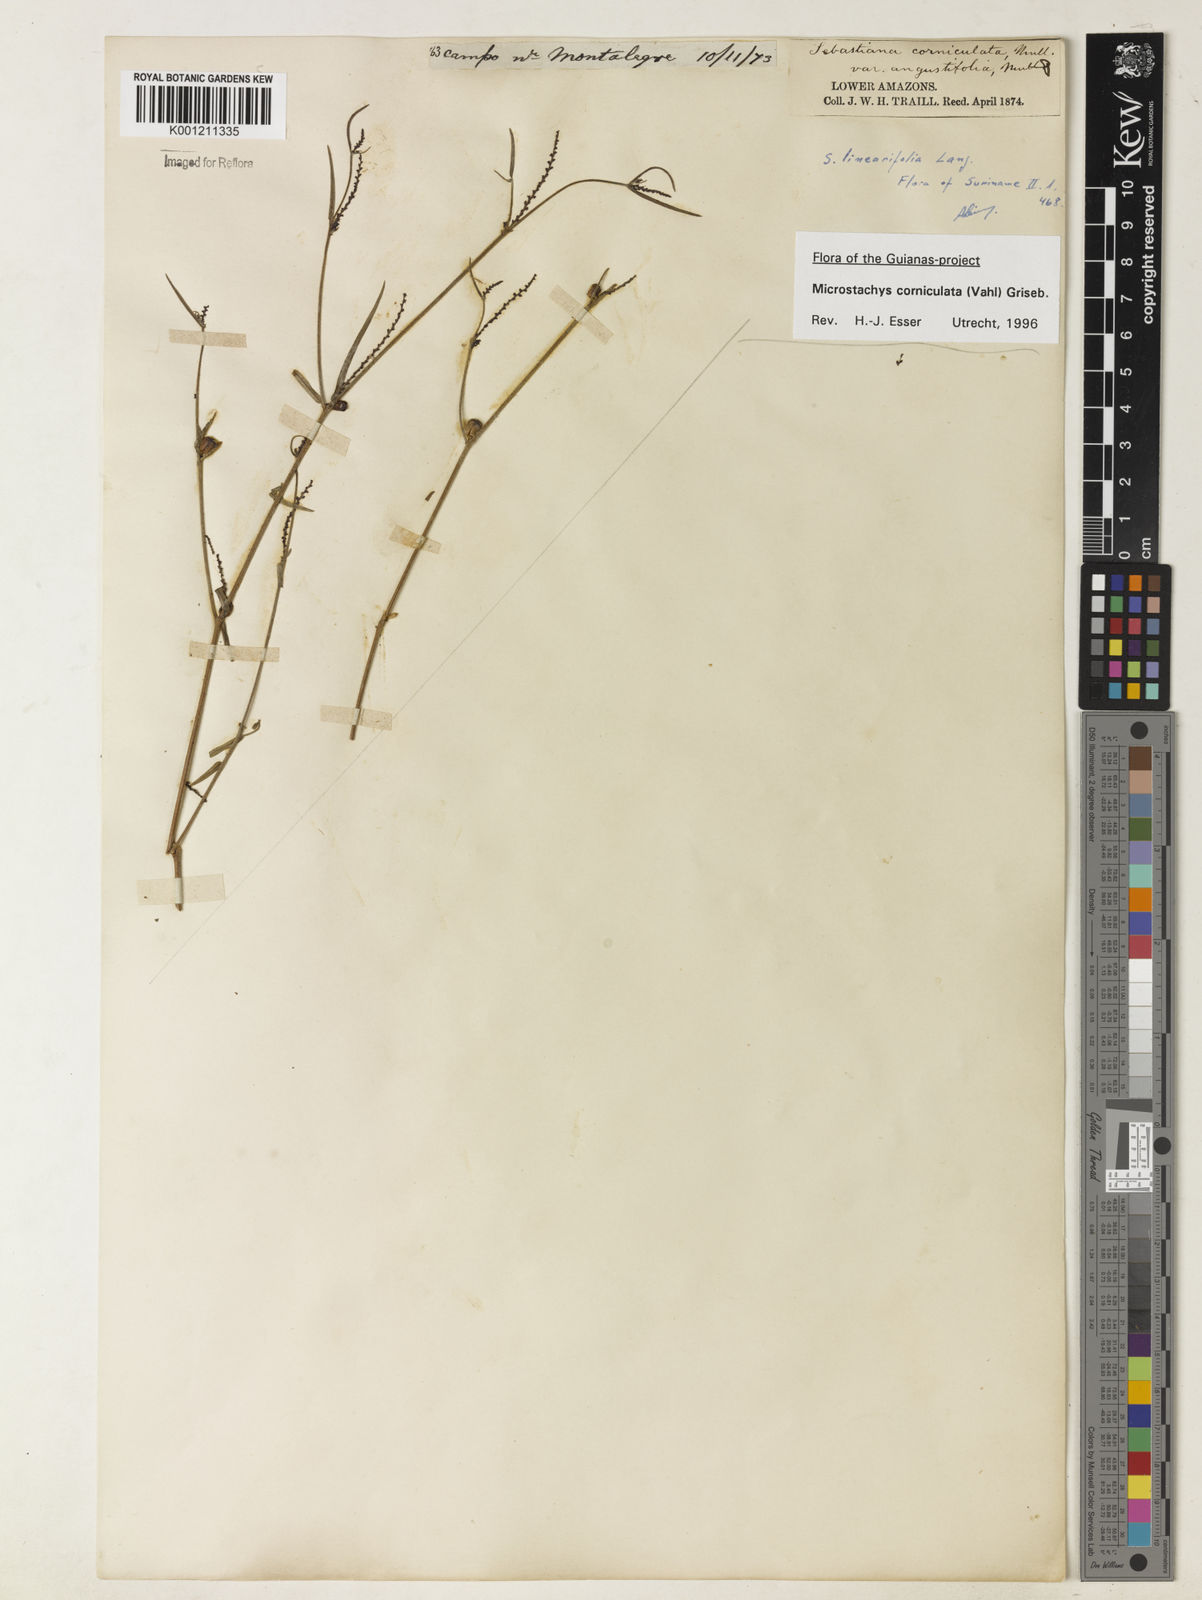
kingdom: Plantae
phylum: Tracheophyta
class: Magnoliopsida
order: Malpighiales
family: Euphorbiaceae
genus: Microstachys
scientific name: Microstachys corniculata
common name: Hato tejas
